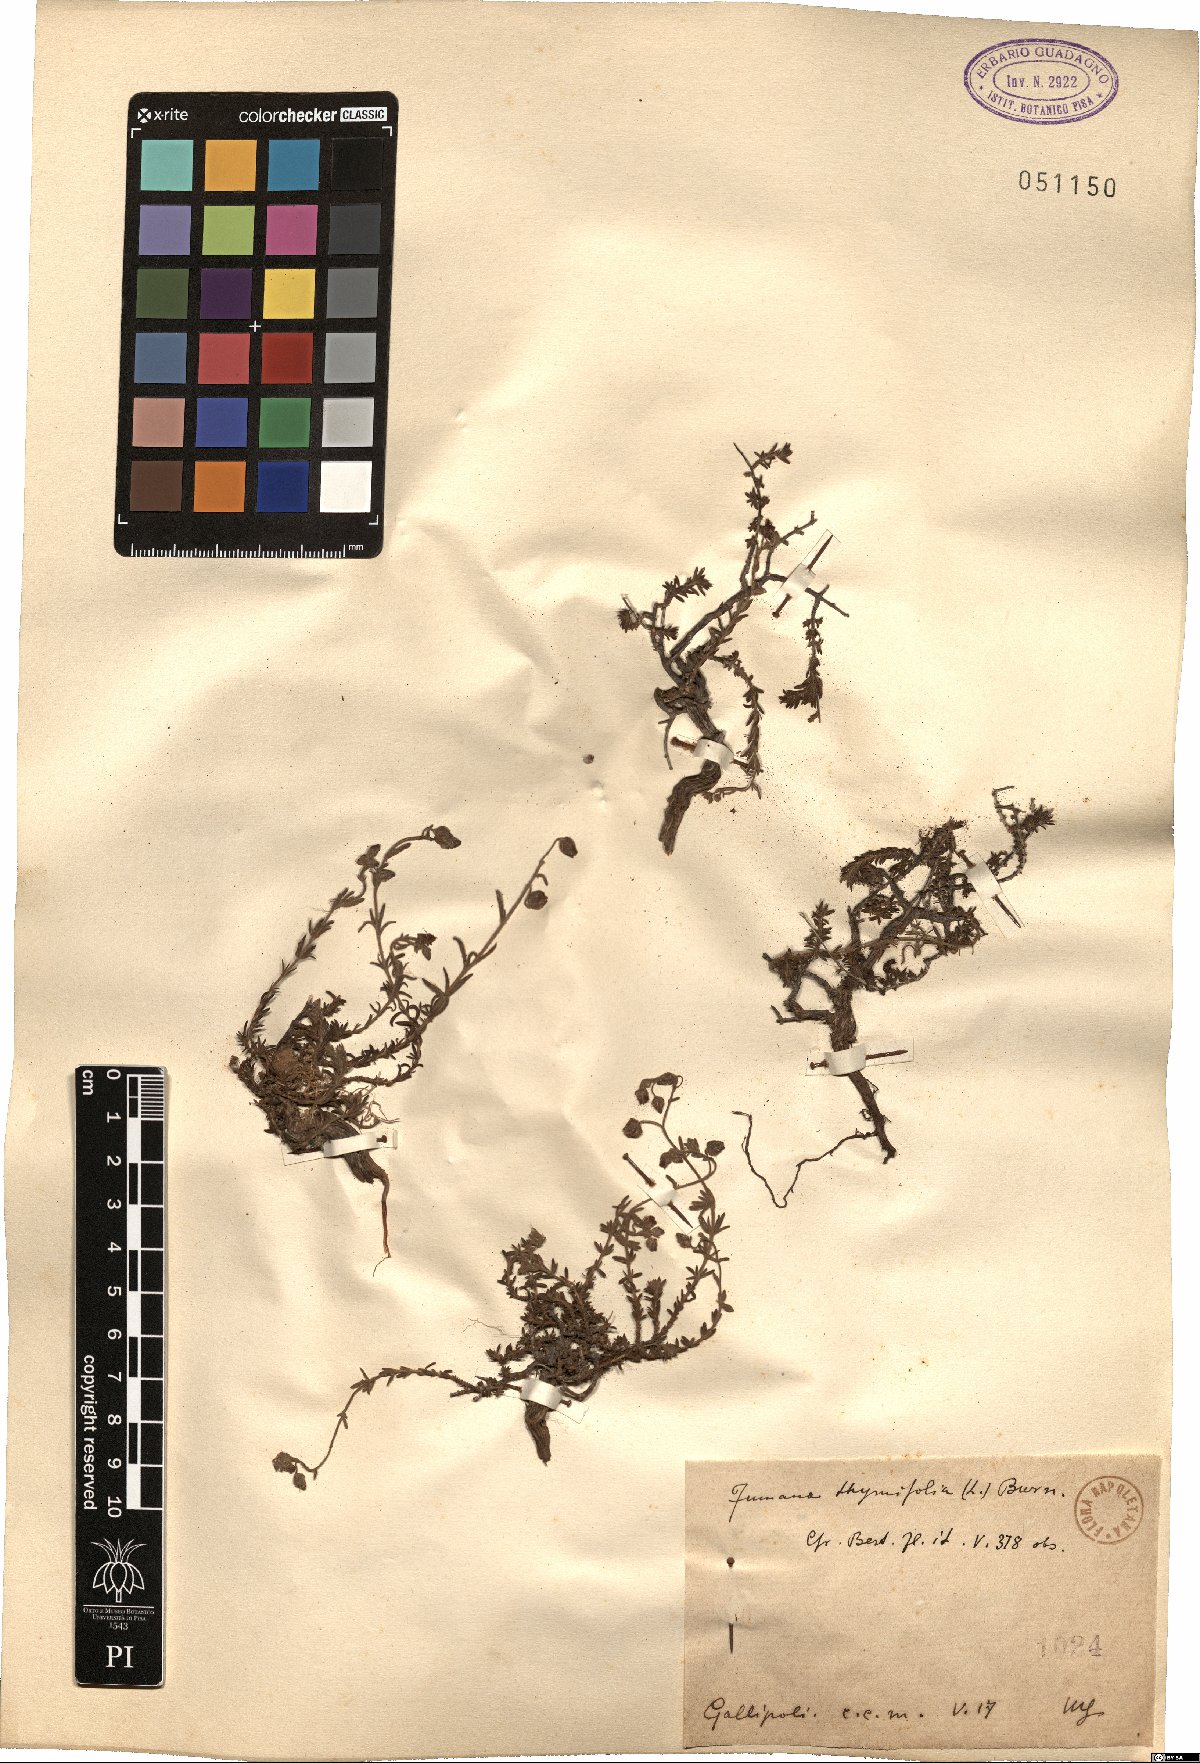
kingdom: Plantae
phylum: Tracheophyta
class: Magnoliopsida
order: Malvales
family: Cistaceae
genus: Fumana
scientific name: Fumana thymifolia
